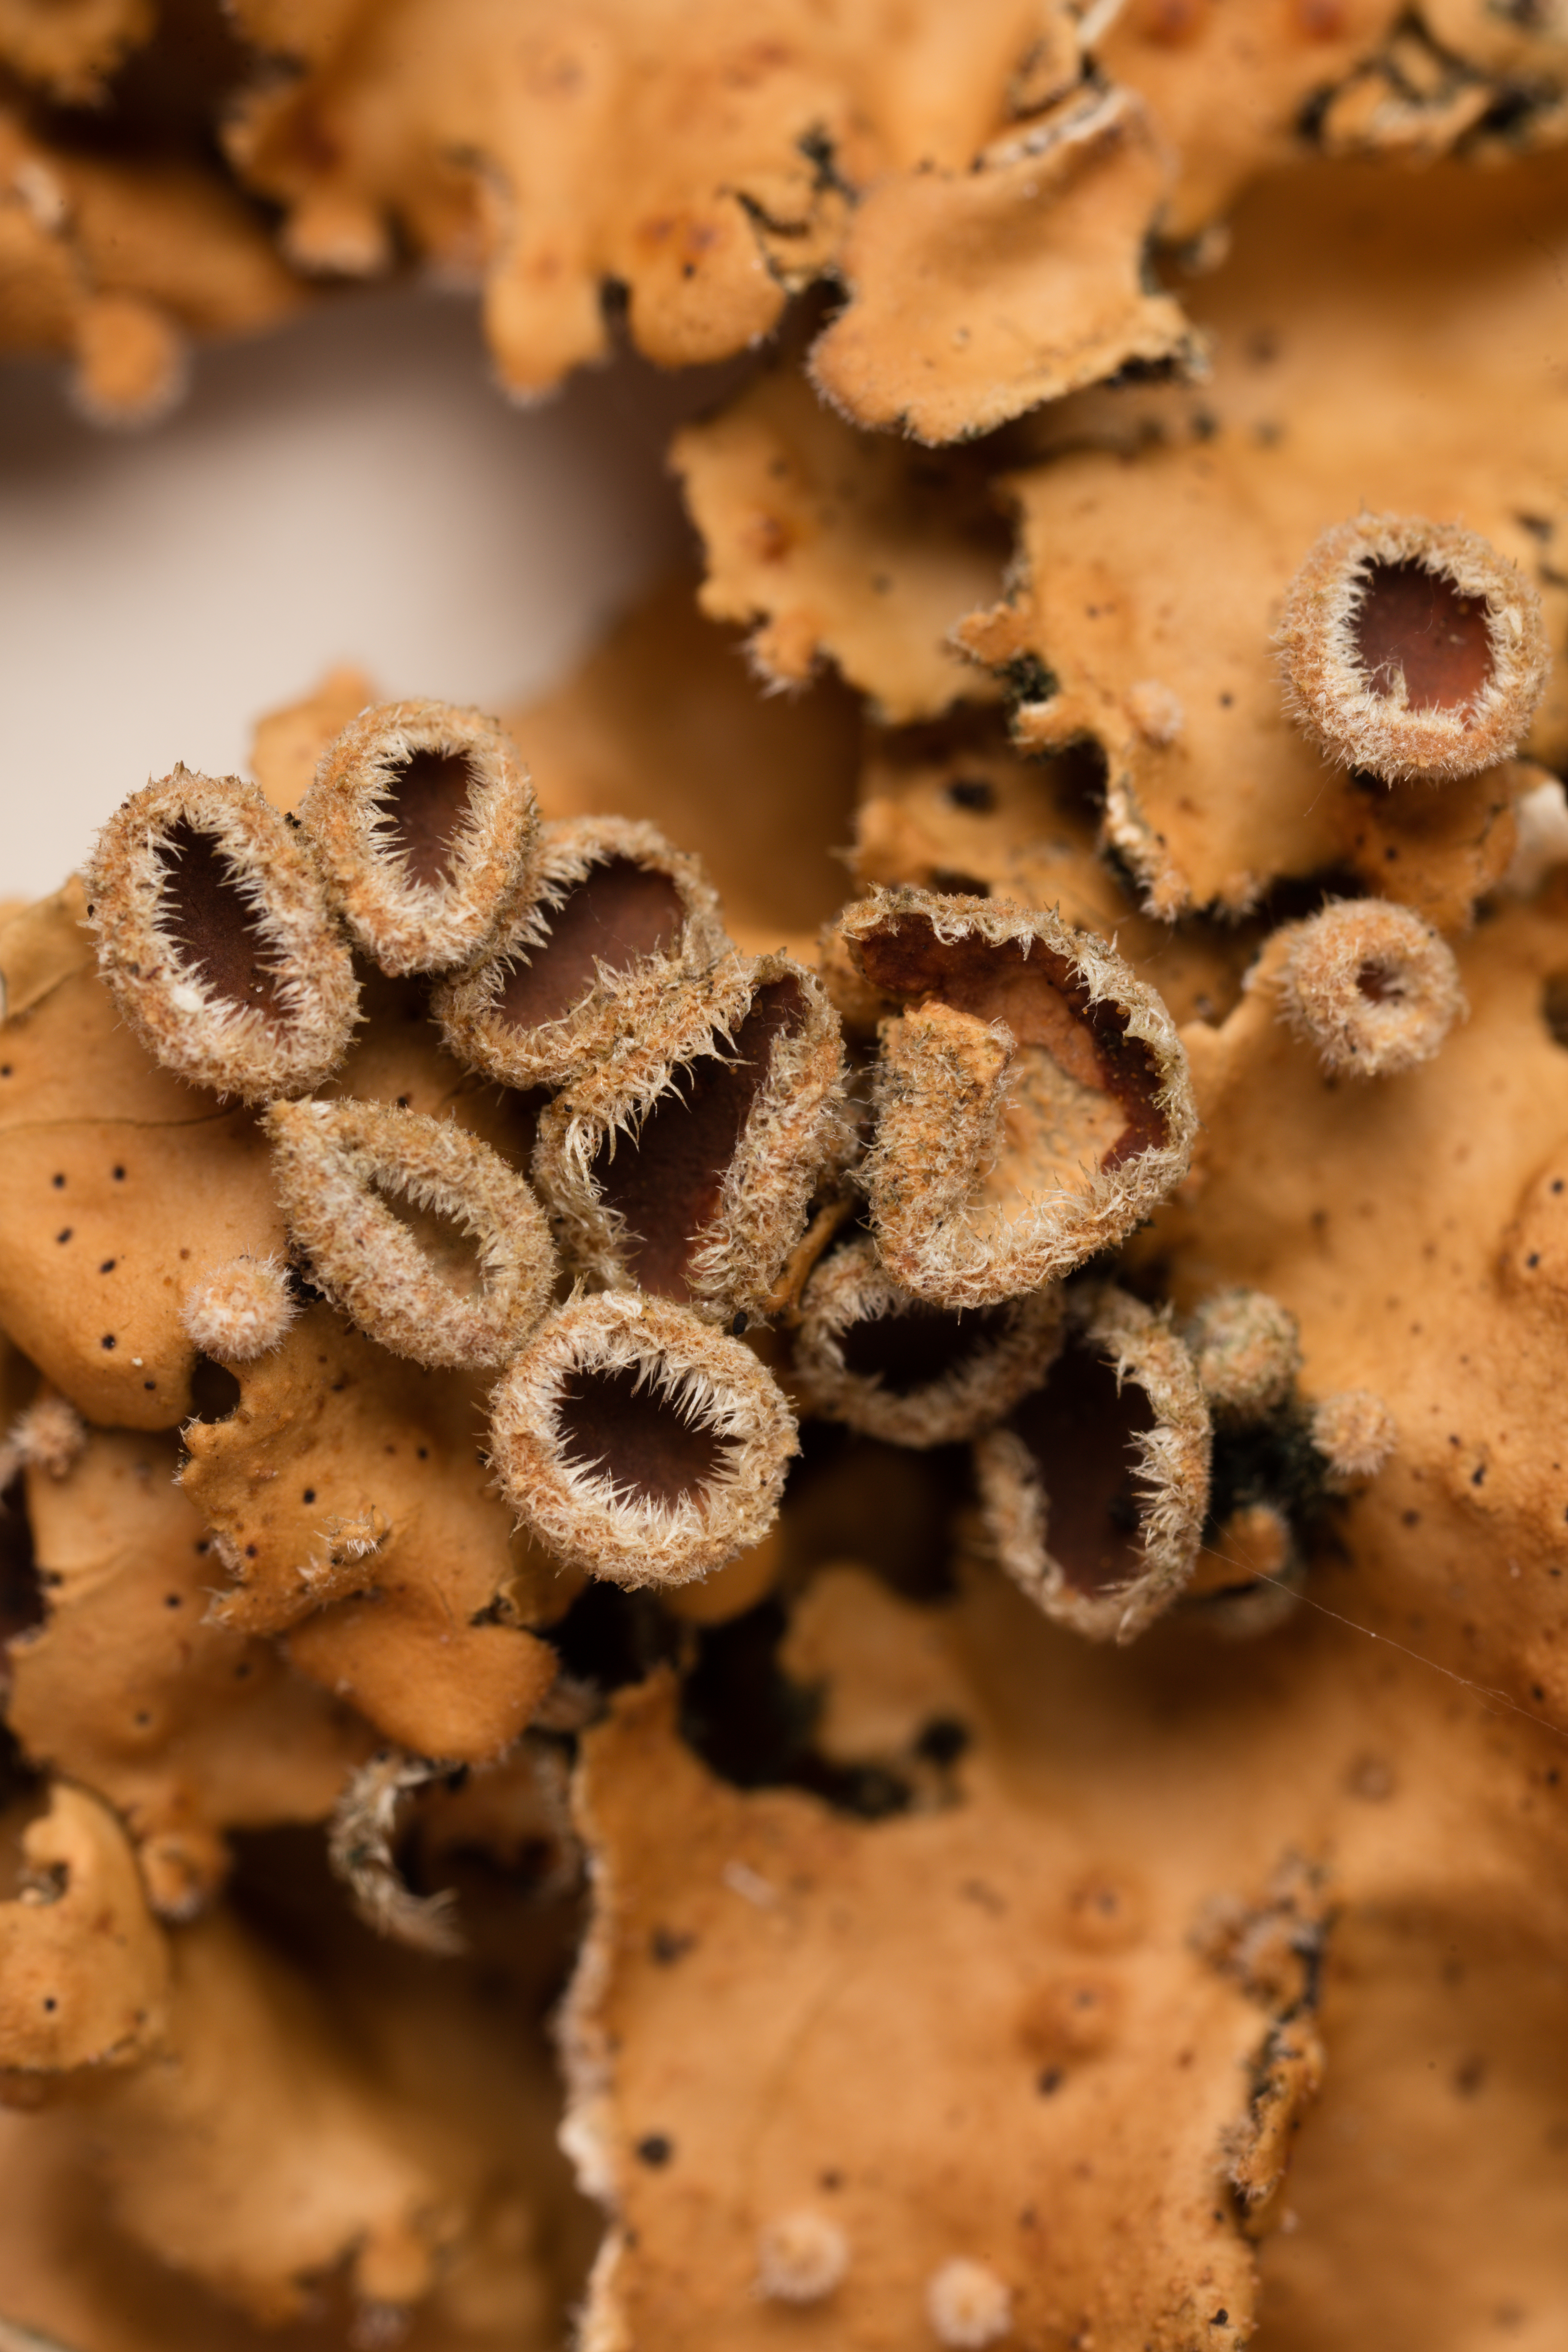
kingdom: Fungi
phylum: Ascomycota
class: Lecanoromycetes
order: Peltigerales
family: Lobariaceae
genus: Sticta
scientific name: Sticta subcaperata
